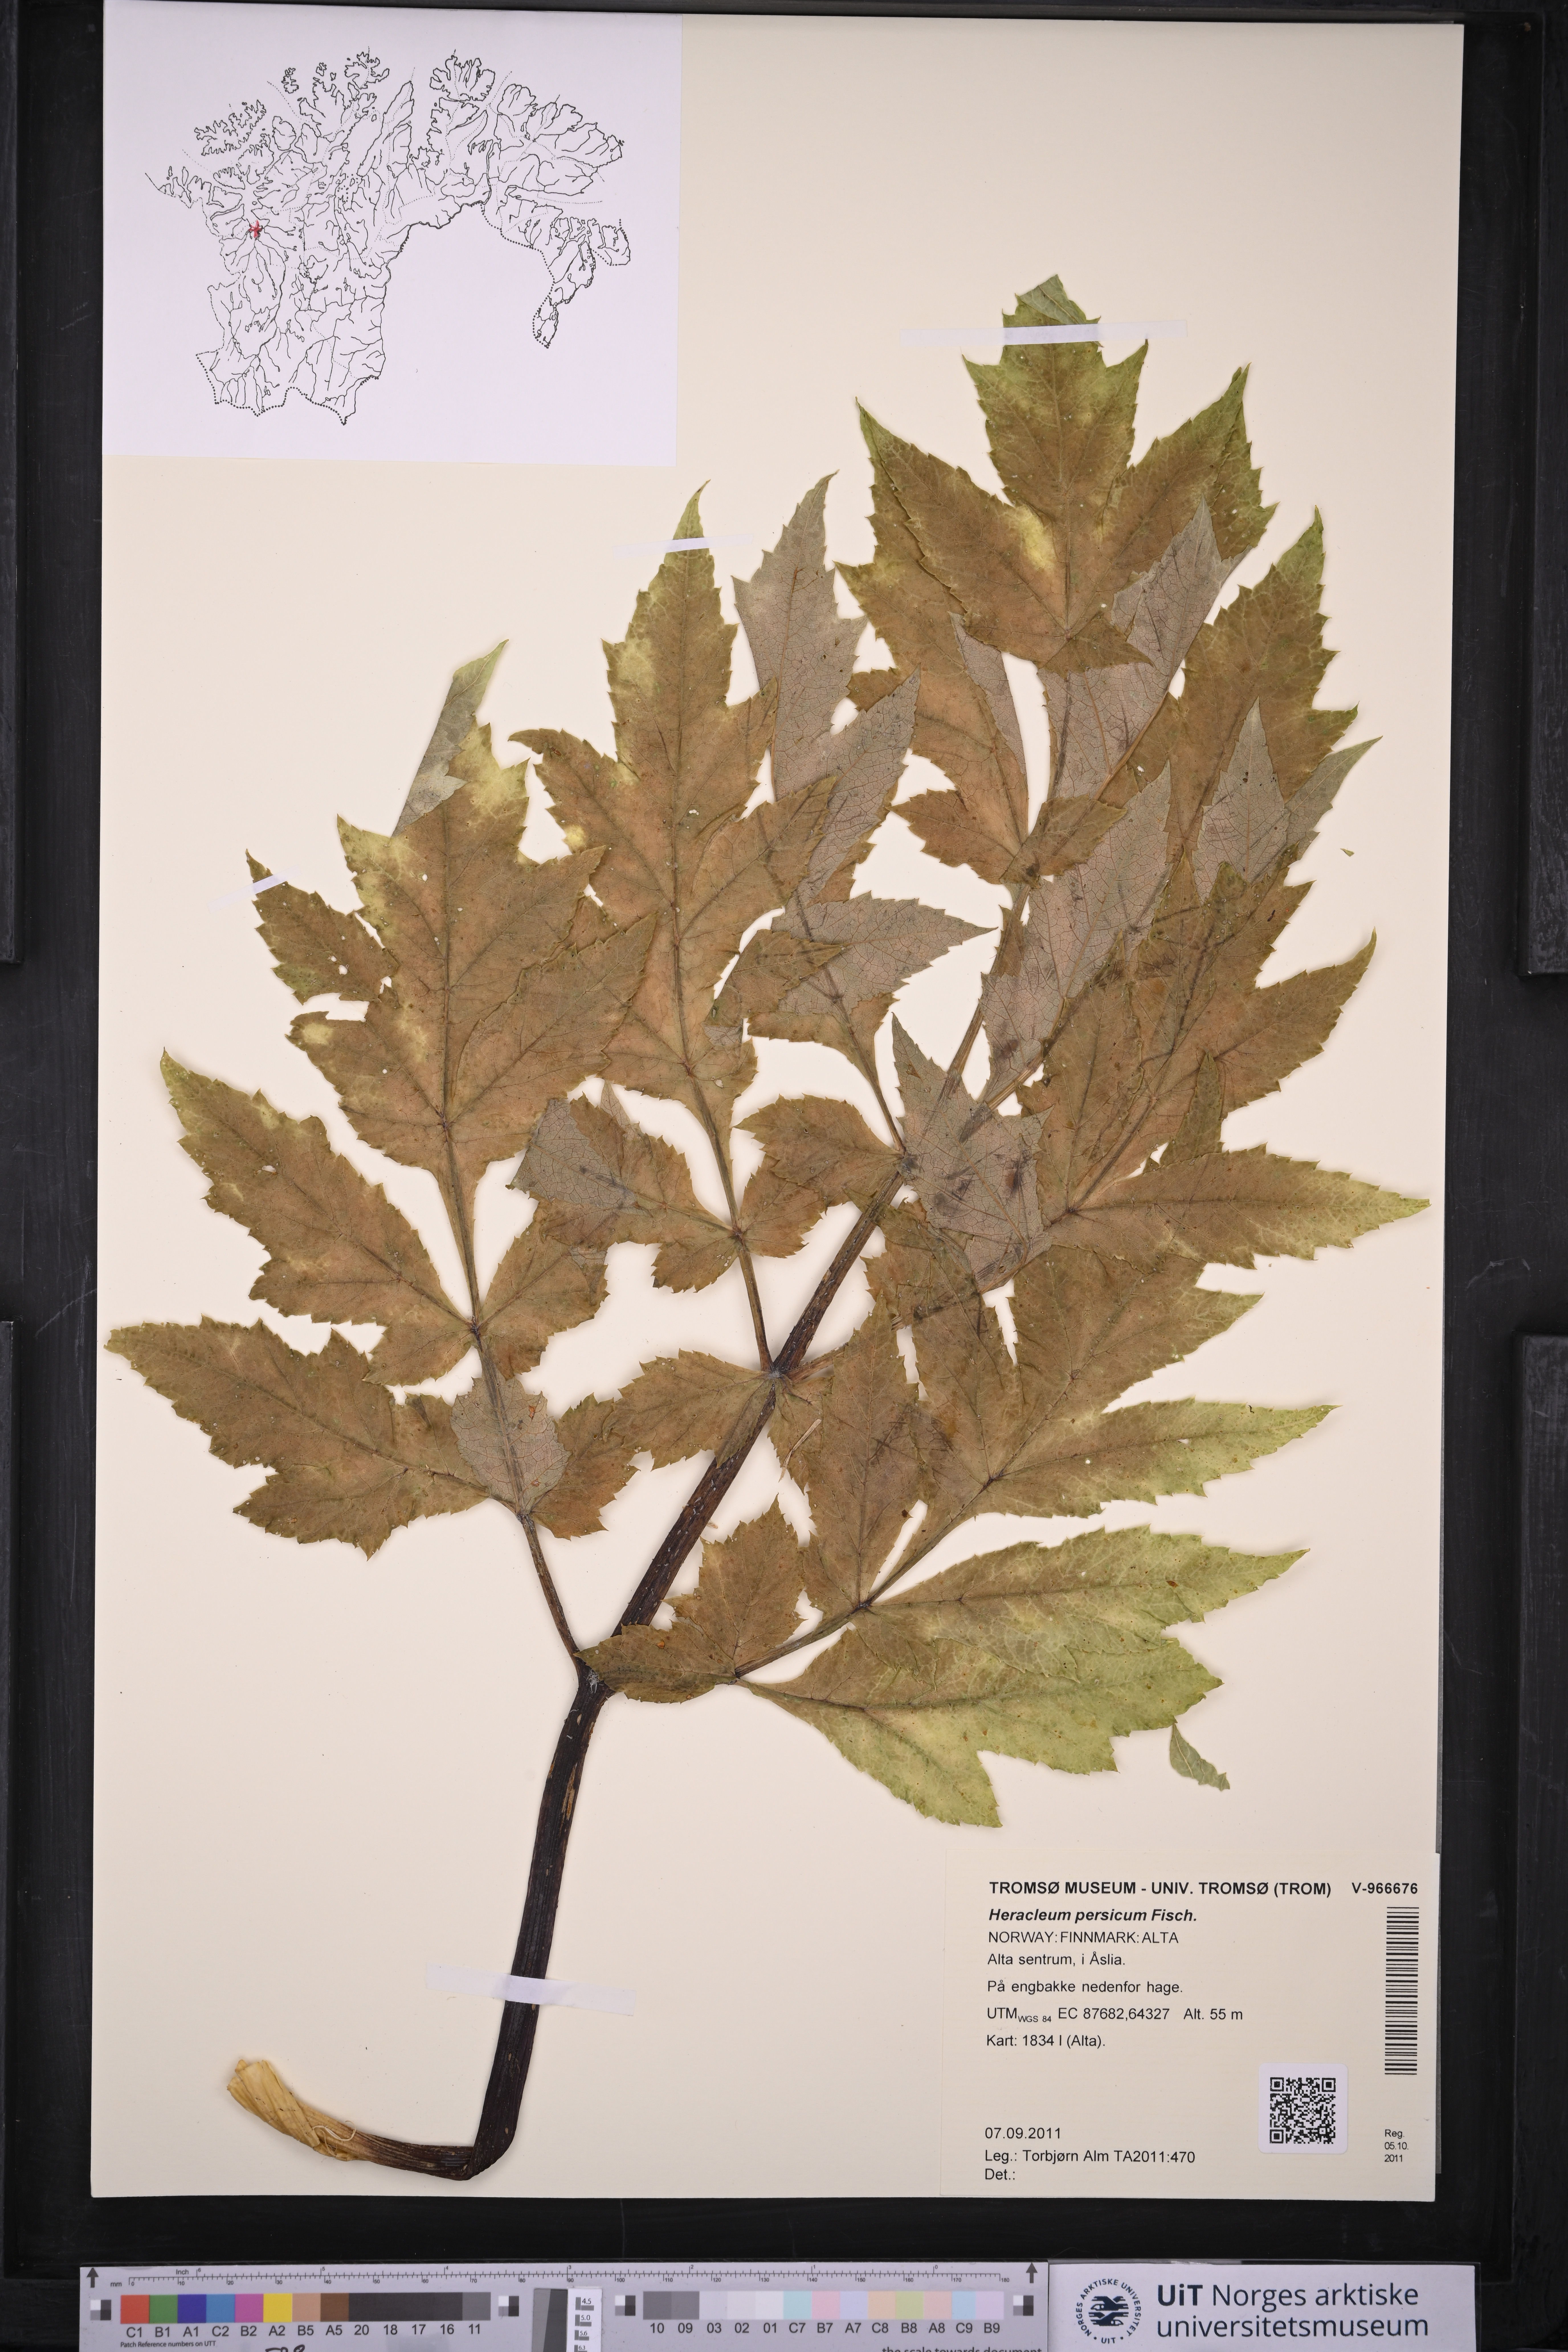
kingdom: Plantae
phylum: Tracheophyta
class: Magnoliopsida
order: Apiales
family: Apiaceae
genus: Heracleum
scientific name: Heracleum persicum
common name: Persian hogweed
